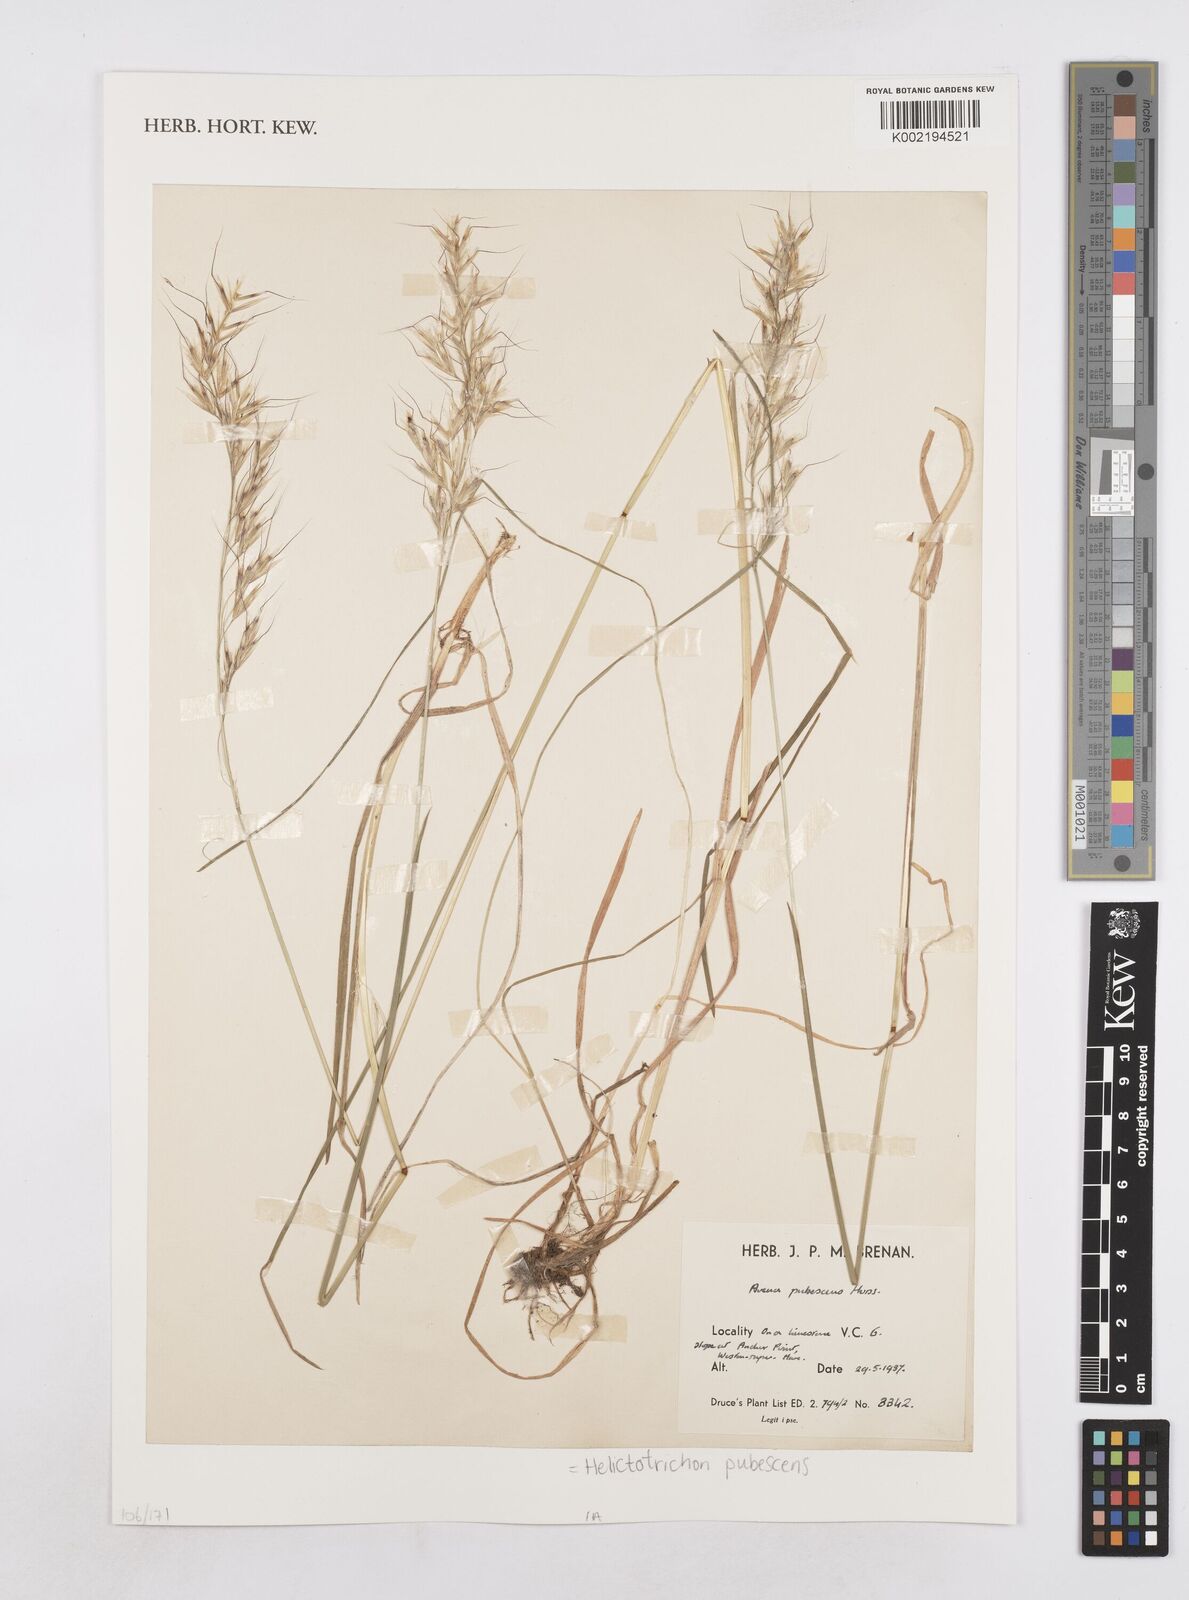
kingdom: Plantae
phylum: Tracheophyta
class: Liliopsida
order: Poales
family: Poaceae
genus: Avenula
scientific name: Avenula pubescens
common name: Downy alpine oatgrass
